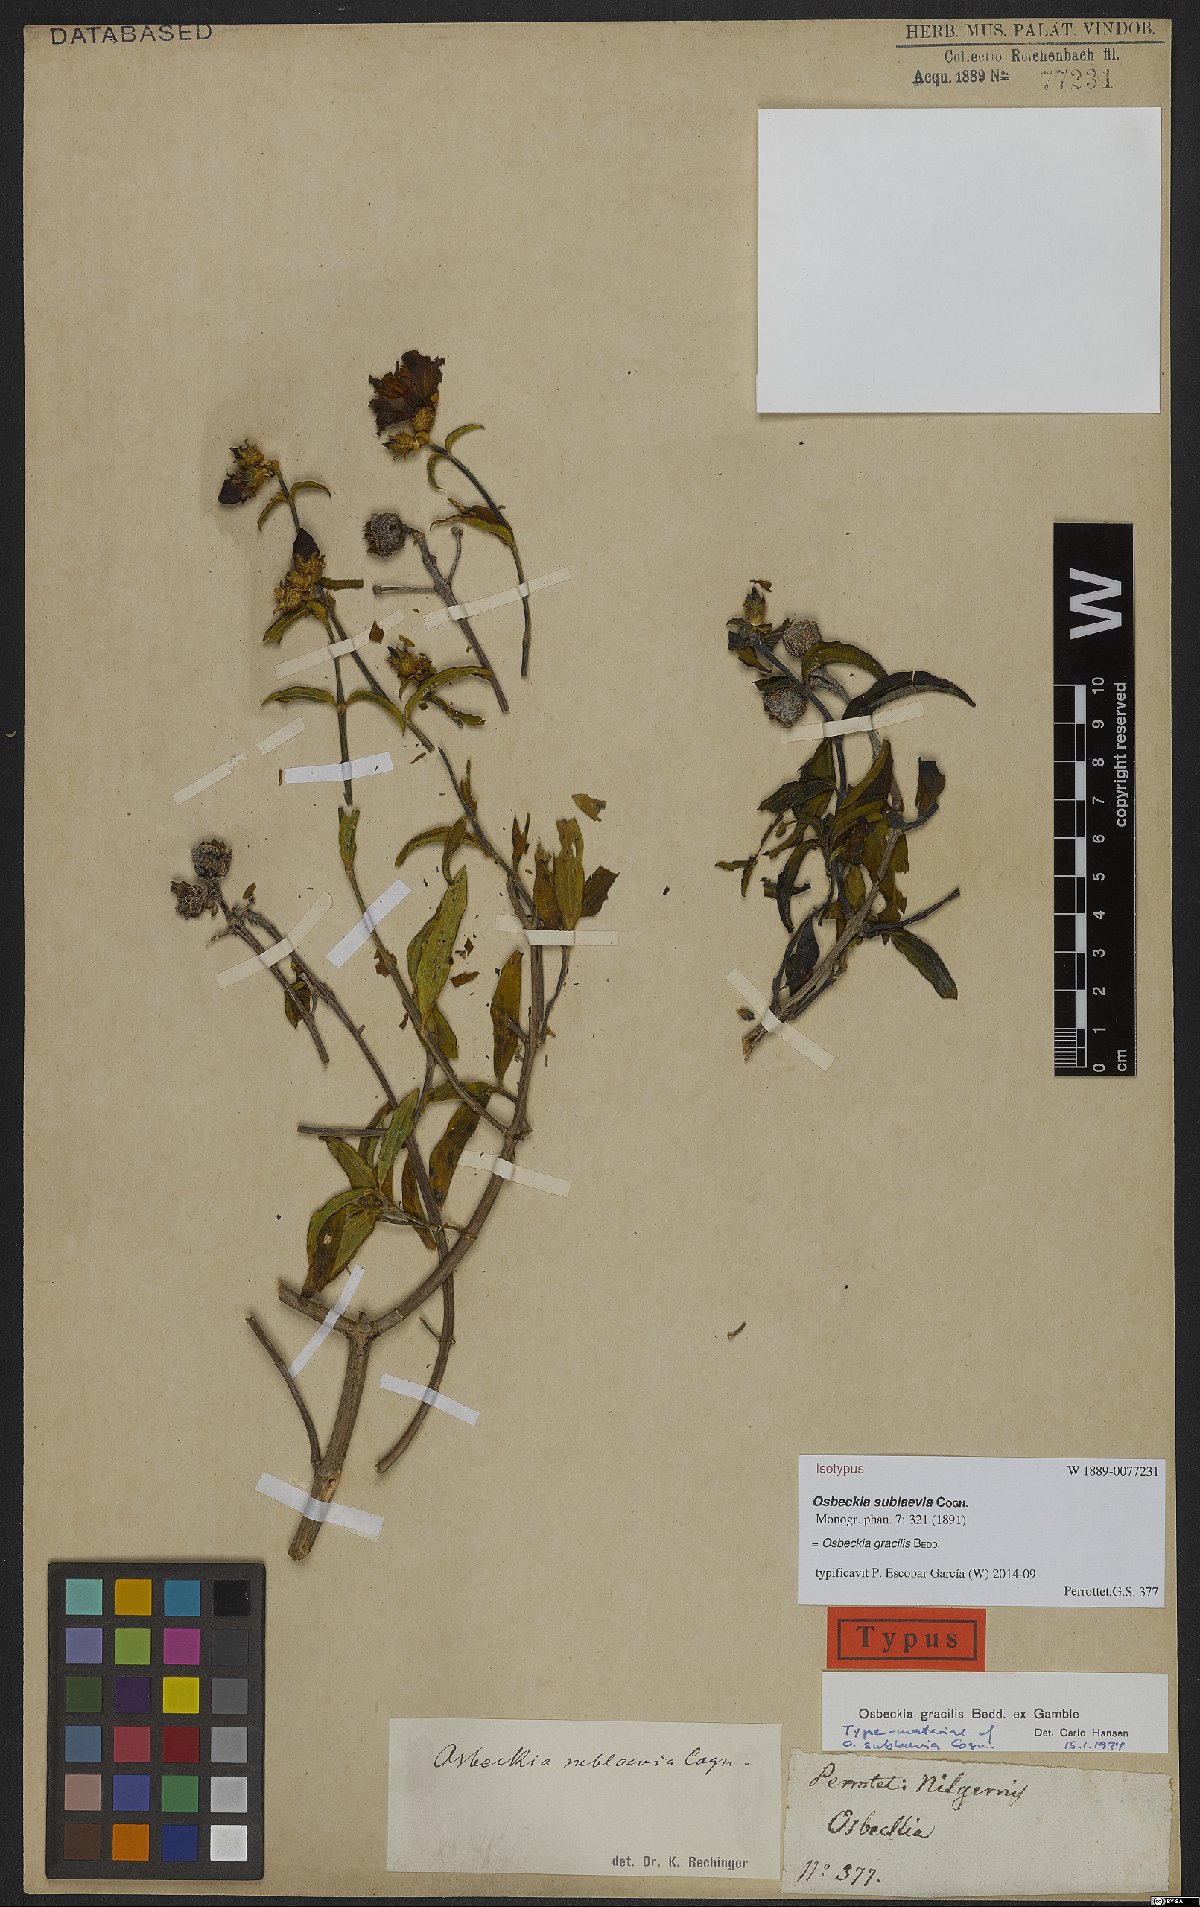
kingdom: Plantae
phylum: Tracheophyta
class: Magnoliopsida
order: Myrtales
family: Melastomataceae
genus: Osbeckia
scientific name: Osbeckia gracilis
